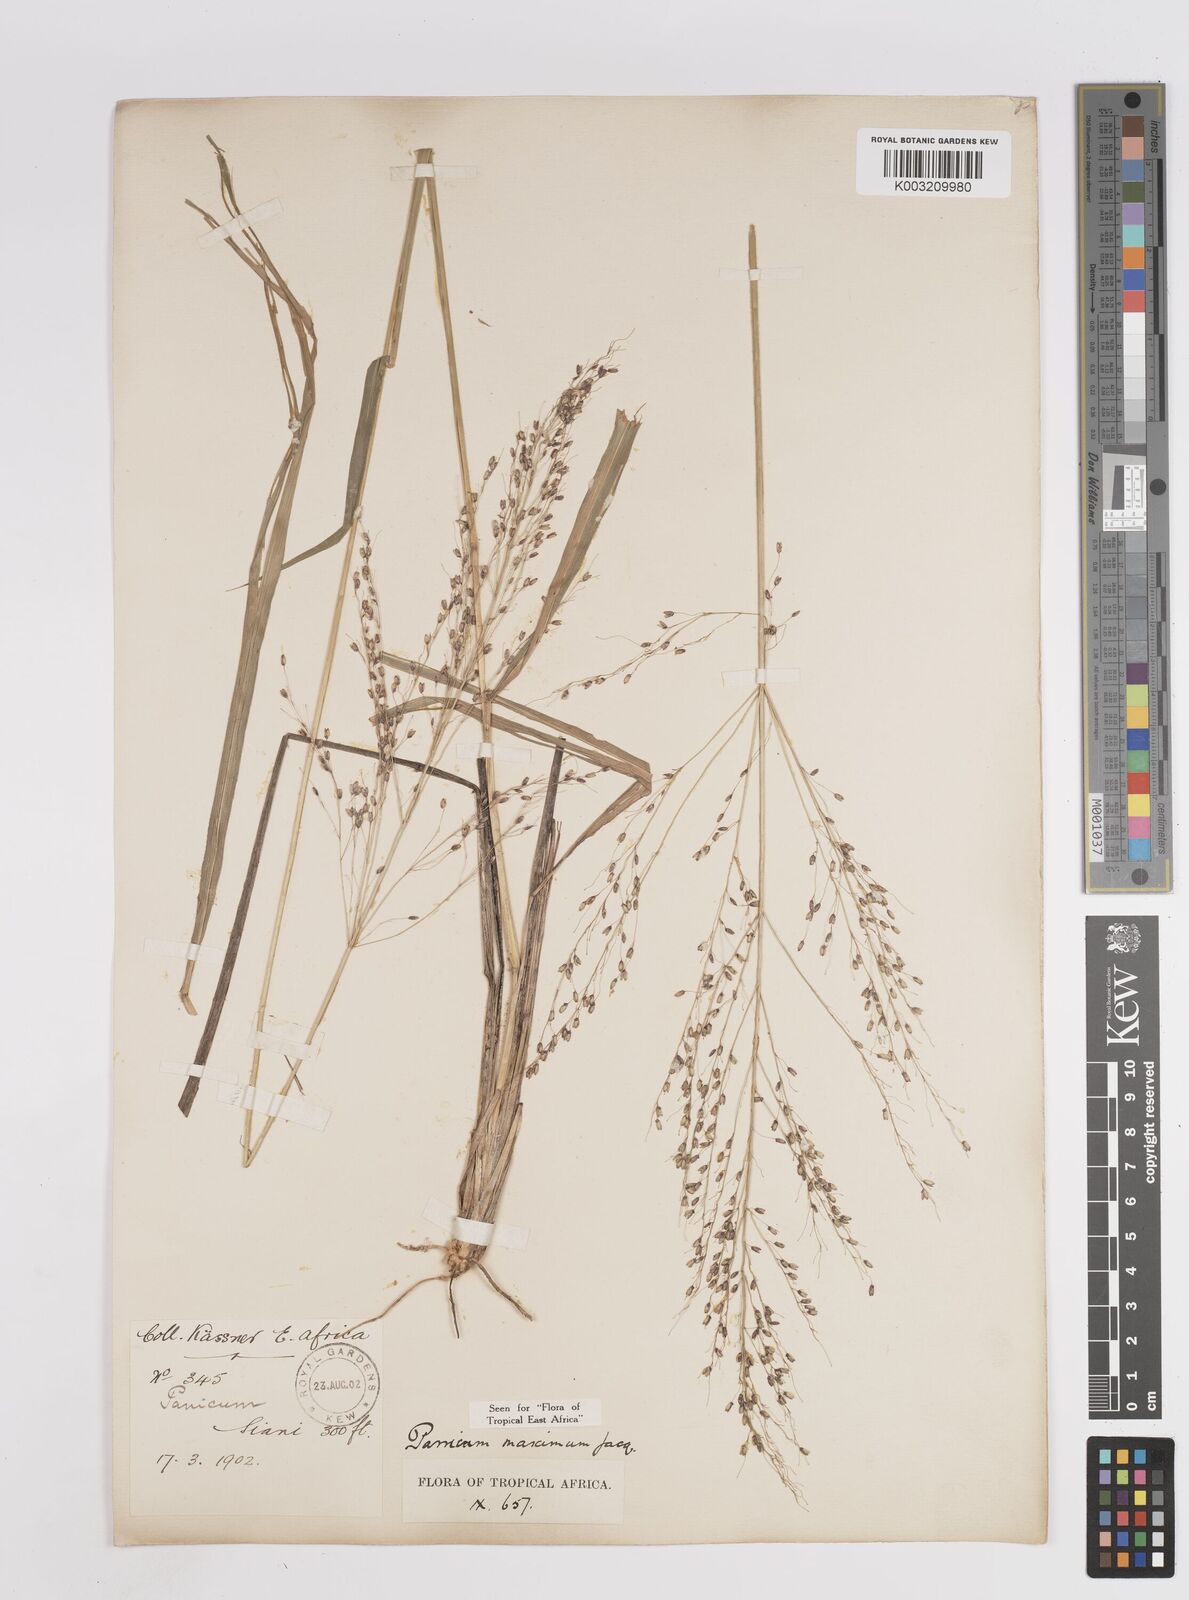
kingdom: Plantae
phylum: Tracheophyta
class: Liliopsida
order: Poales
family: Poaceae
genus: Megathyrsus
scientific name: Megathyrsus maximus
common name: Guineagrass
